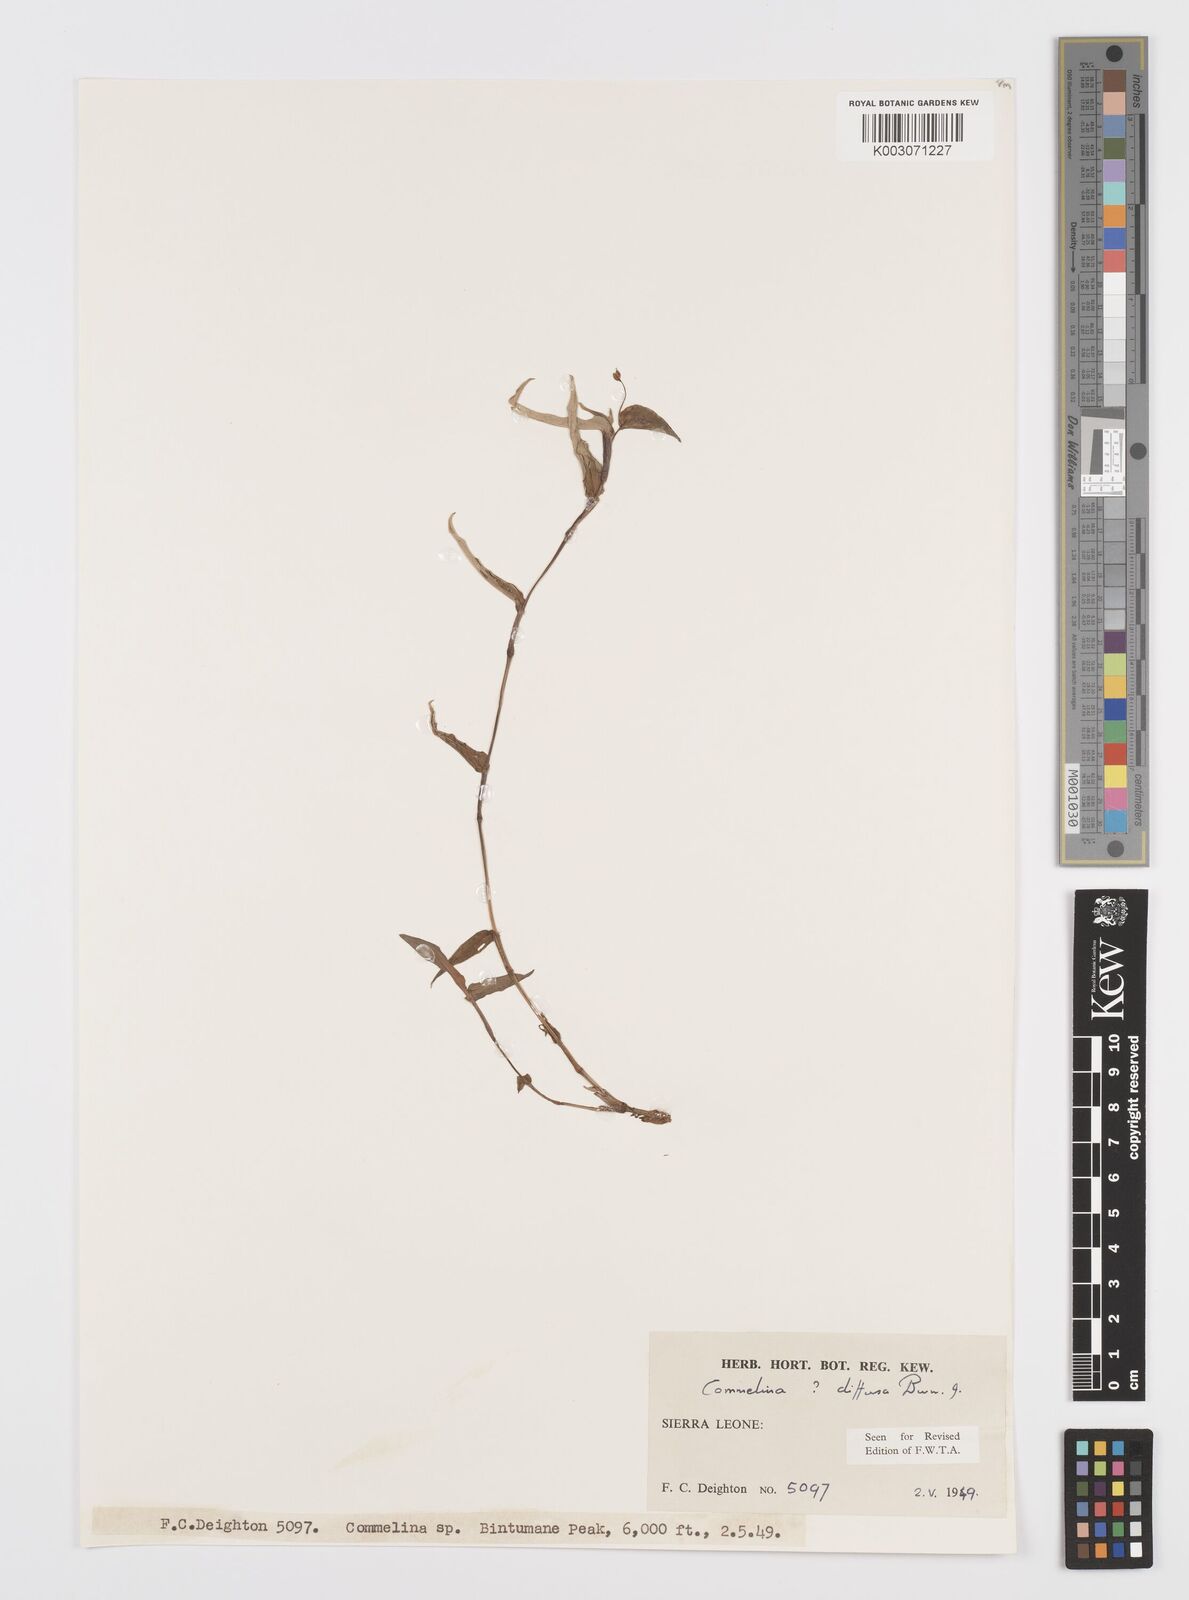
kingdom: Plantae
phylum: Tracheophyta
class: Liliopsida
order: Commelinales
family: Commelinaceae
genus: Commelina
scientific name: Commelina diffusa
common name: Climbing dayflower
